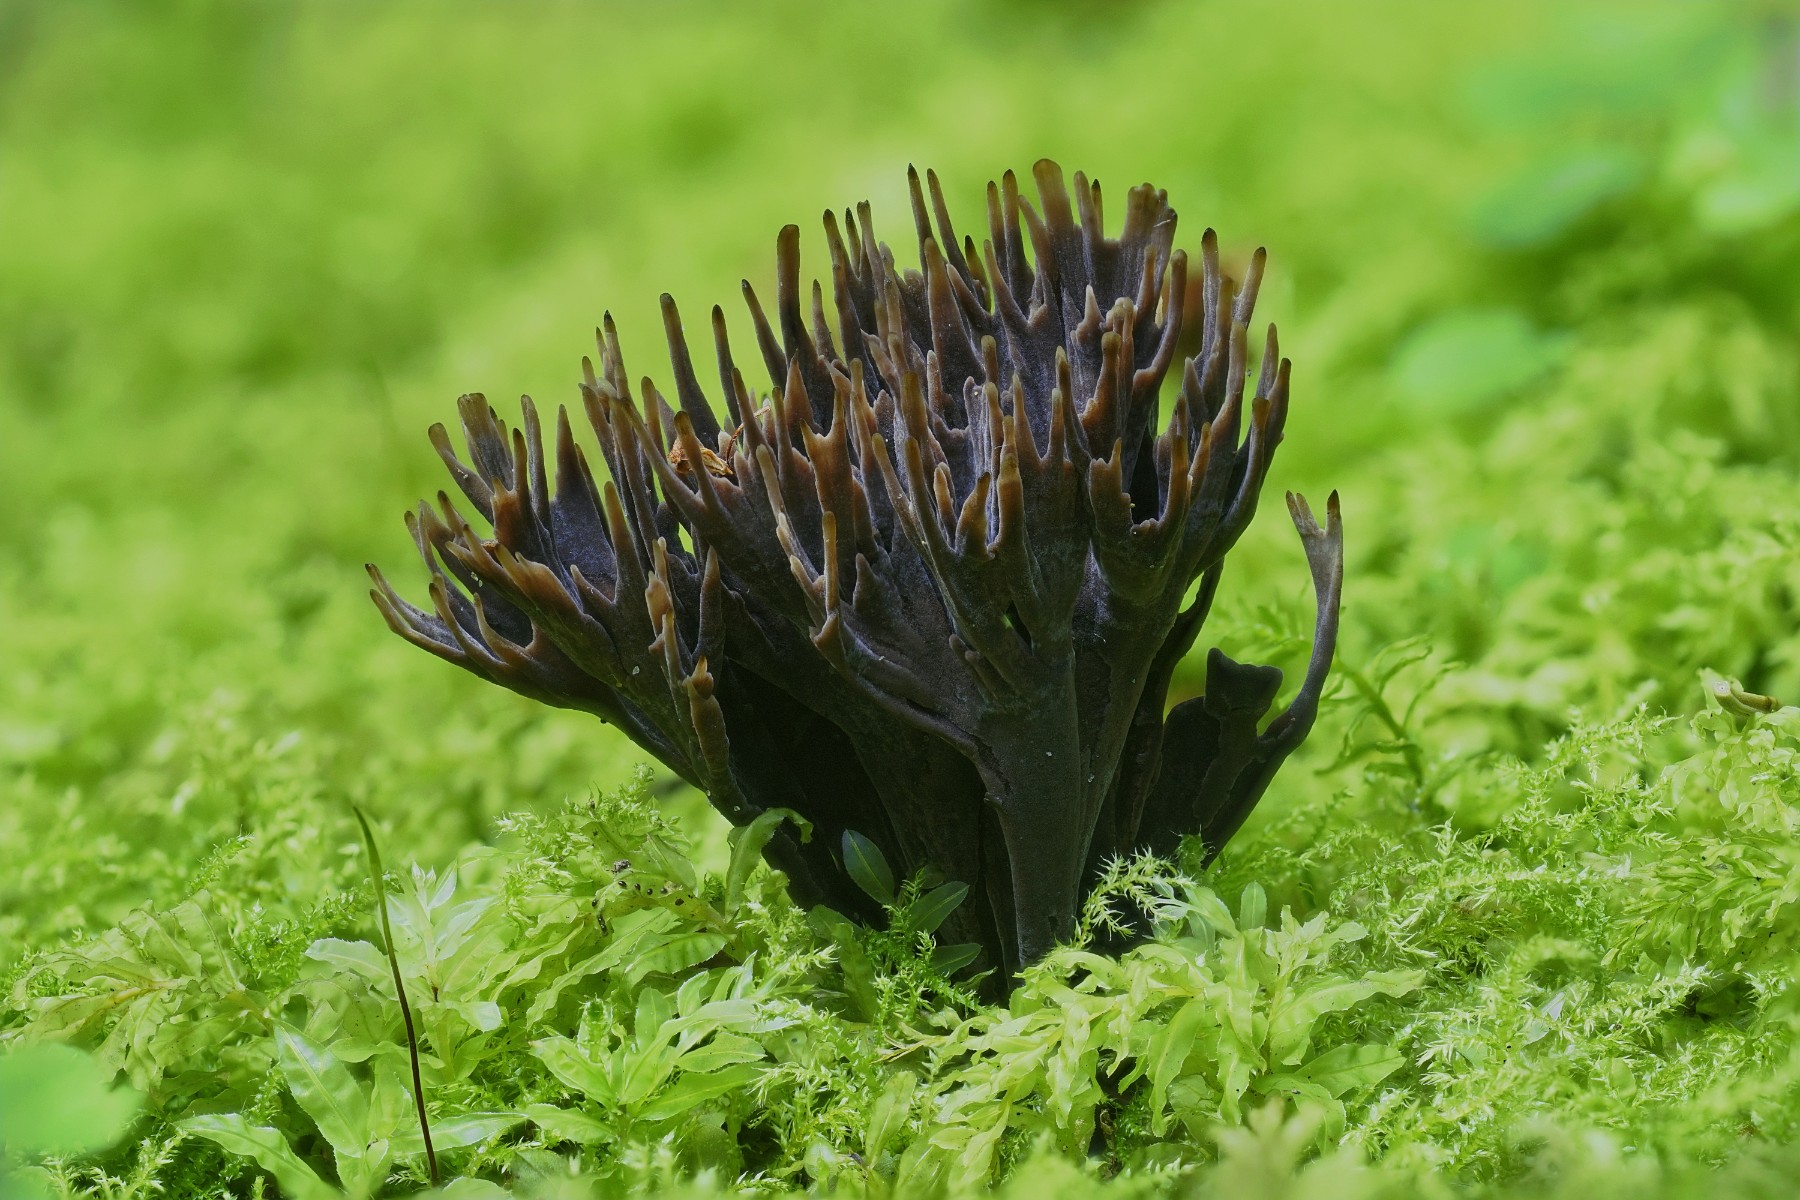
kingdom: Fungi
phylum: Basidiomycota
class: Agaricomycetes
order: Thelephorales
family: Thelephoraceae
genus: Thelephora
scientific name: Thelephora palmata
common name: grenet frynsesvamp
